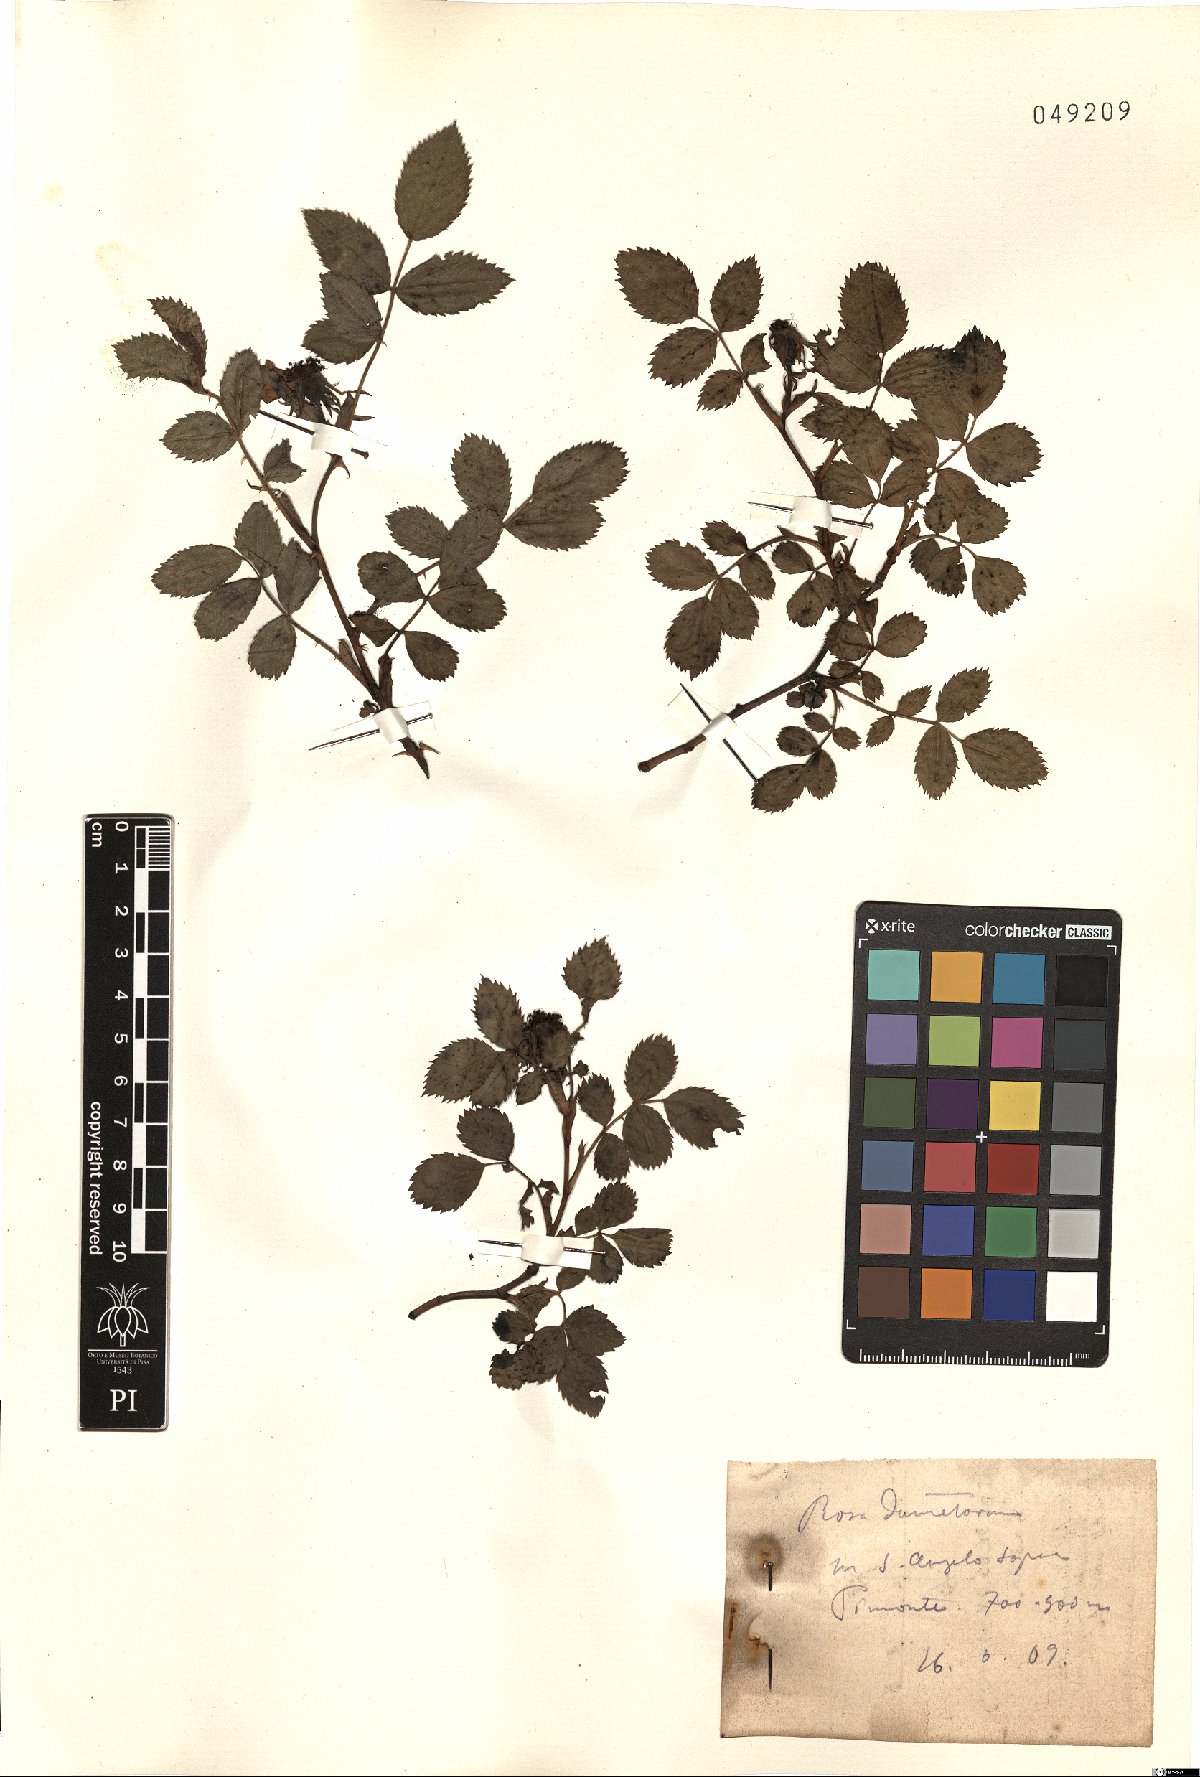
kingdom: Plantae
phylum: Tracheophyta
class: Magnoliopsida
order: Rosales
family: Rosaceae
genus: Rosa
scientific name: Rosa corymbifera
